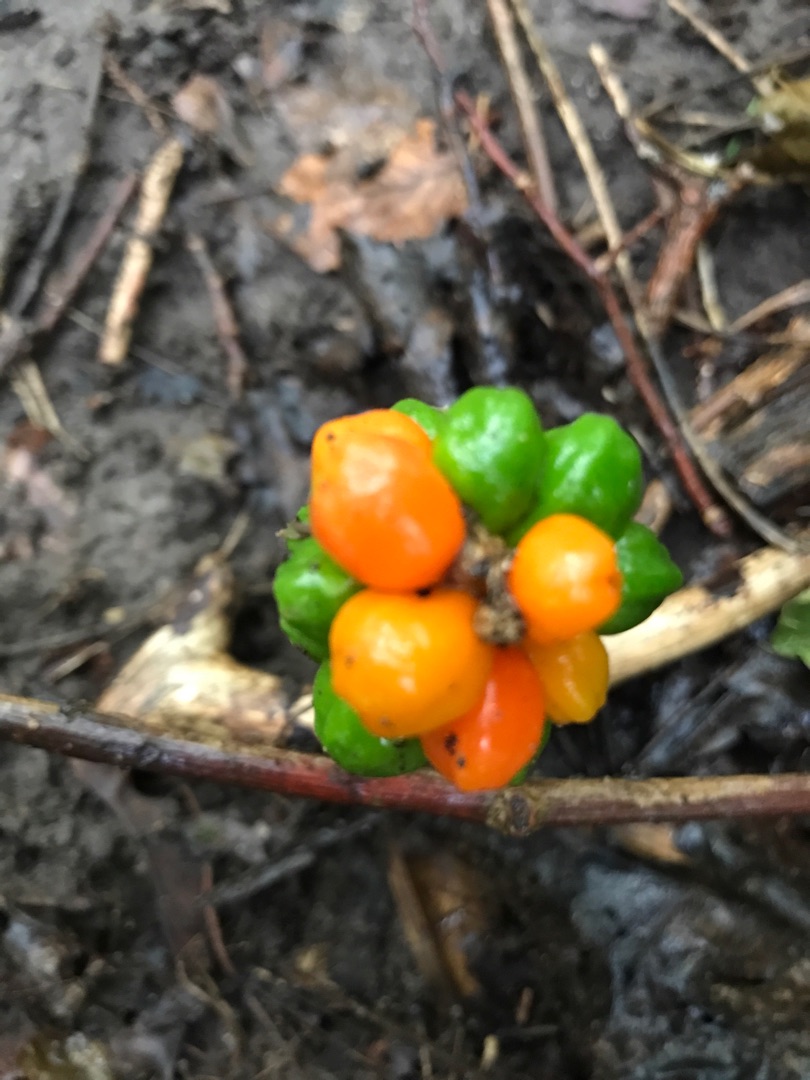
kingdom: Plantae
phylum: Tracheophyta
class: Liliopsida
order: Alismatales
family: Araceae
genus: Arum
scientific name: Arum
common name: Arumslægten
